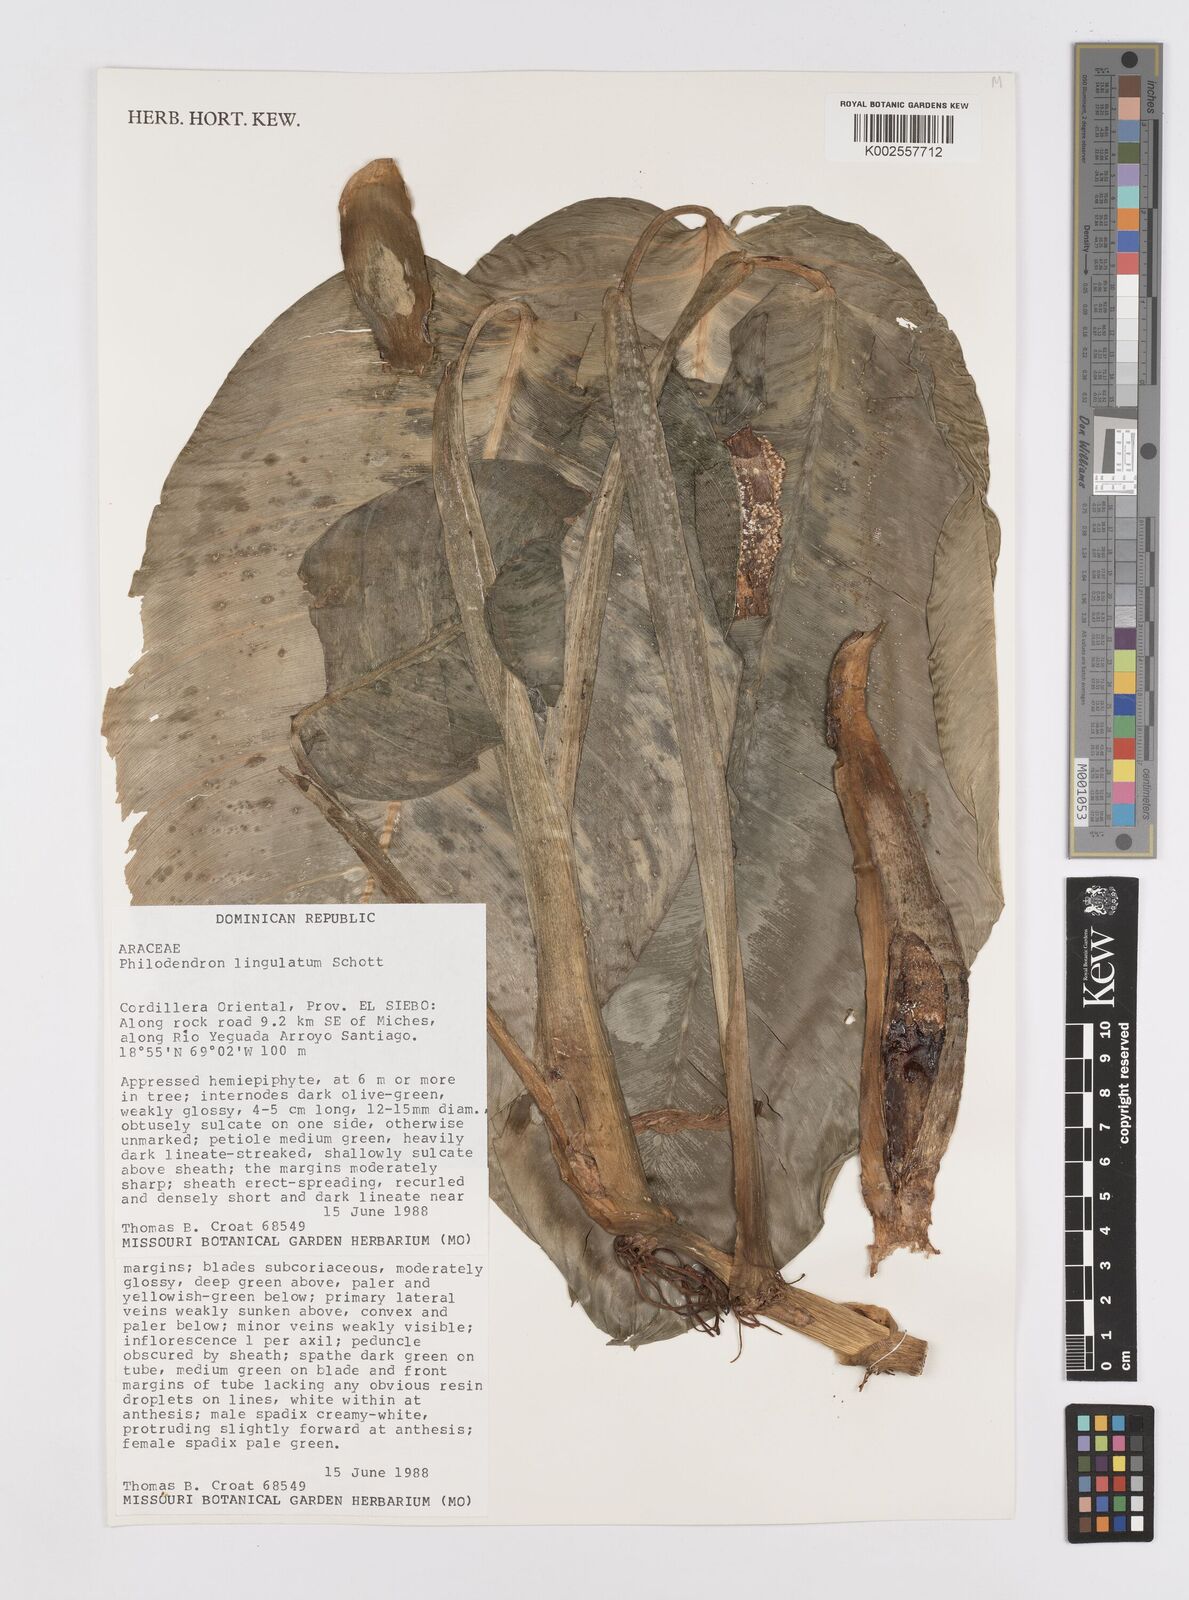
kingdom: Plantae
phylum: Tracheophyta
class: Liliopsida
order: Alismatales
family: Araceae
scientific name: Araceae
